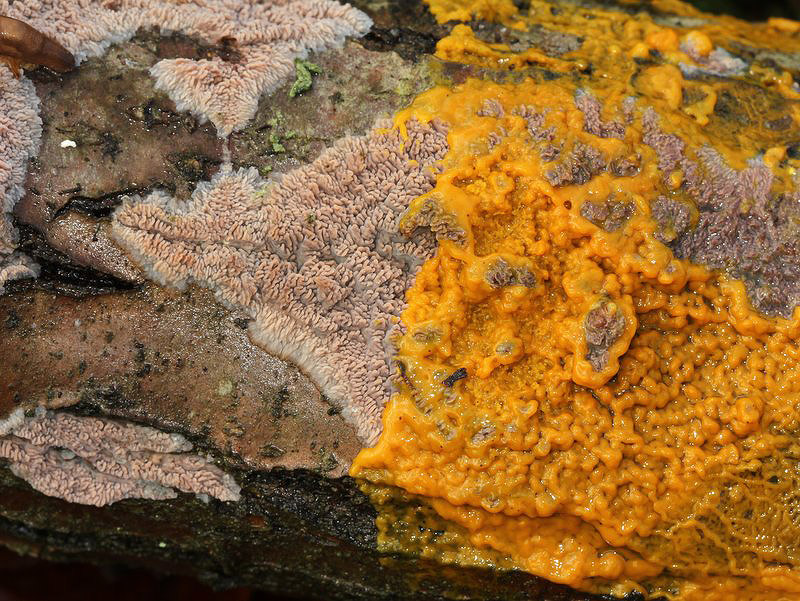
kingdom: Fungi
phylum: Basidiomycota
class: Agaricomycetes
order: Polyporales
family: Meruliaceae
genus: Phlebia
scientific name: Phlebia radiata
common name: stråle-åresvamp
